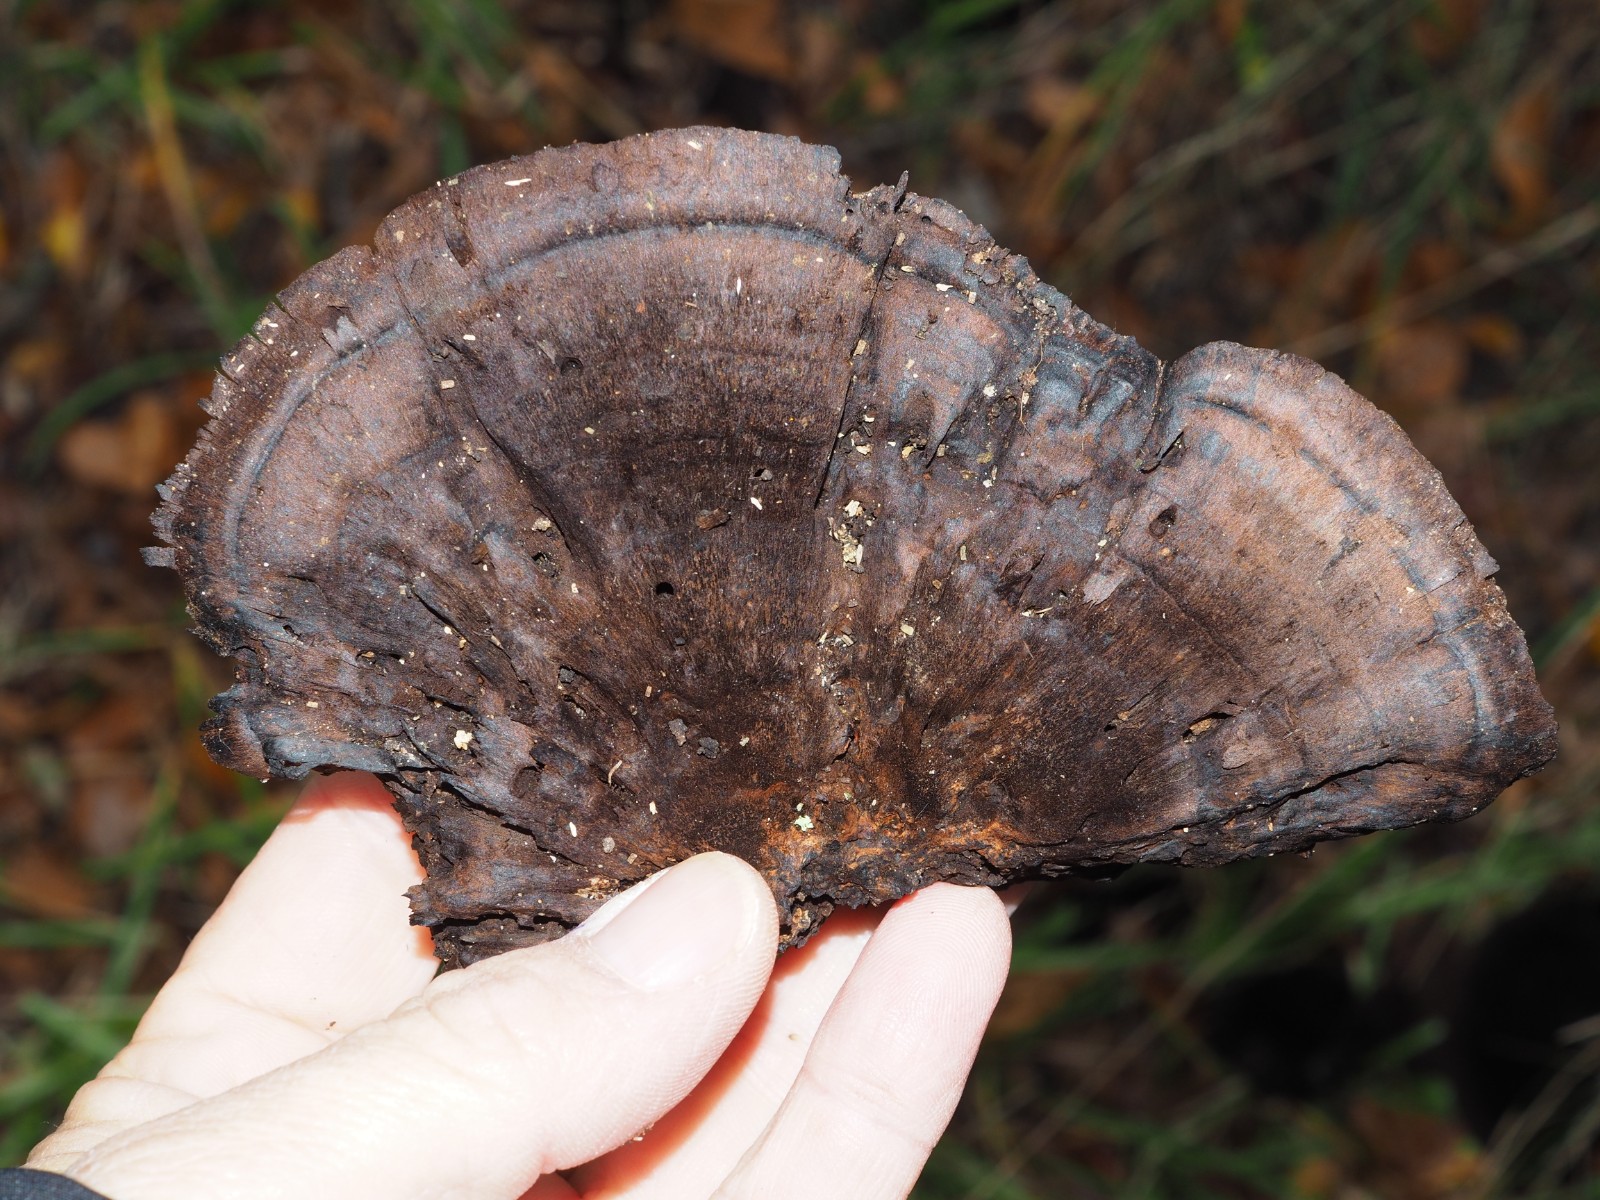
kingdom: Fungi
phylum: Basidiomycota
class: Agaricomycetes
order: Polyporales
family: Ischnodermataceae
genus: Ischnoderma
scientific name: Ischnoderma resinosum
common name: løv-tjæreporesvamp
